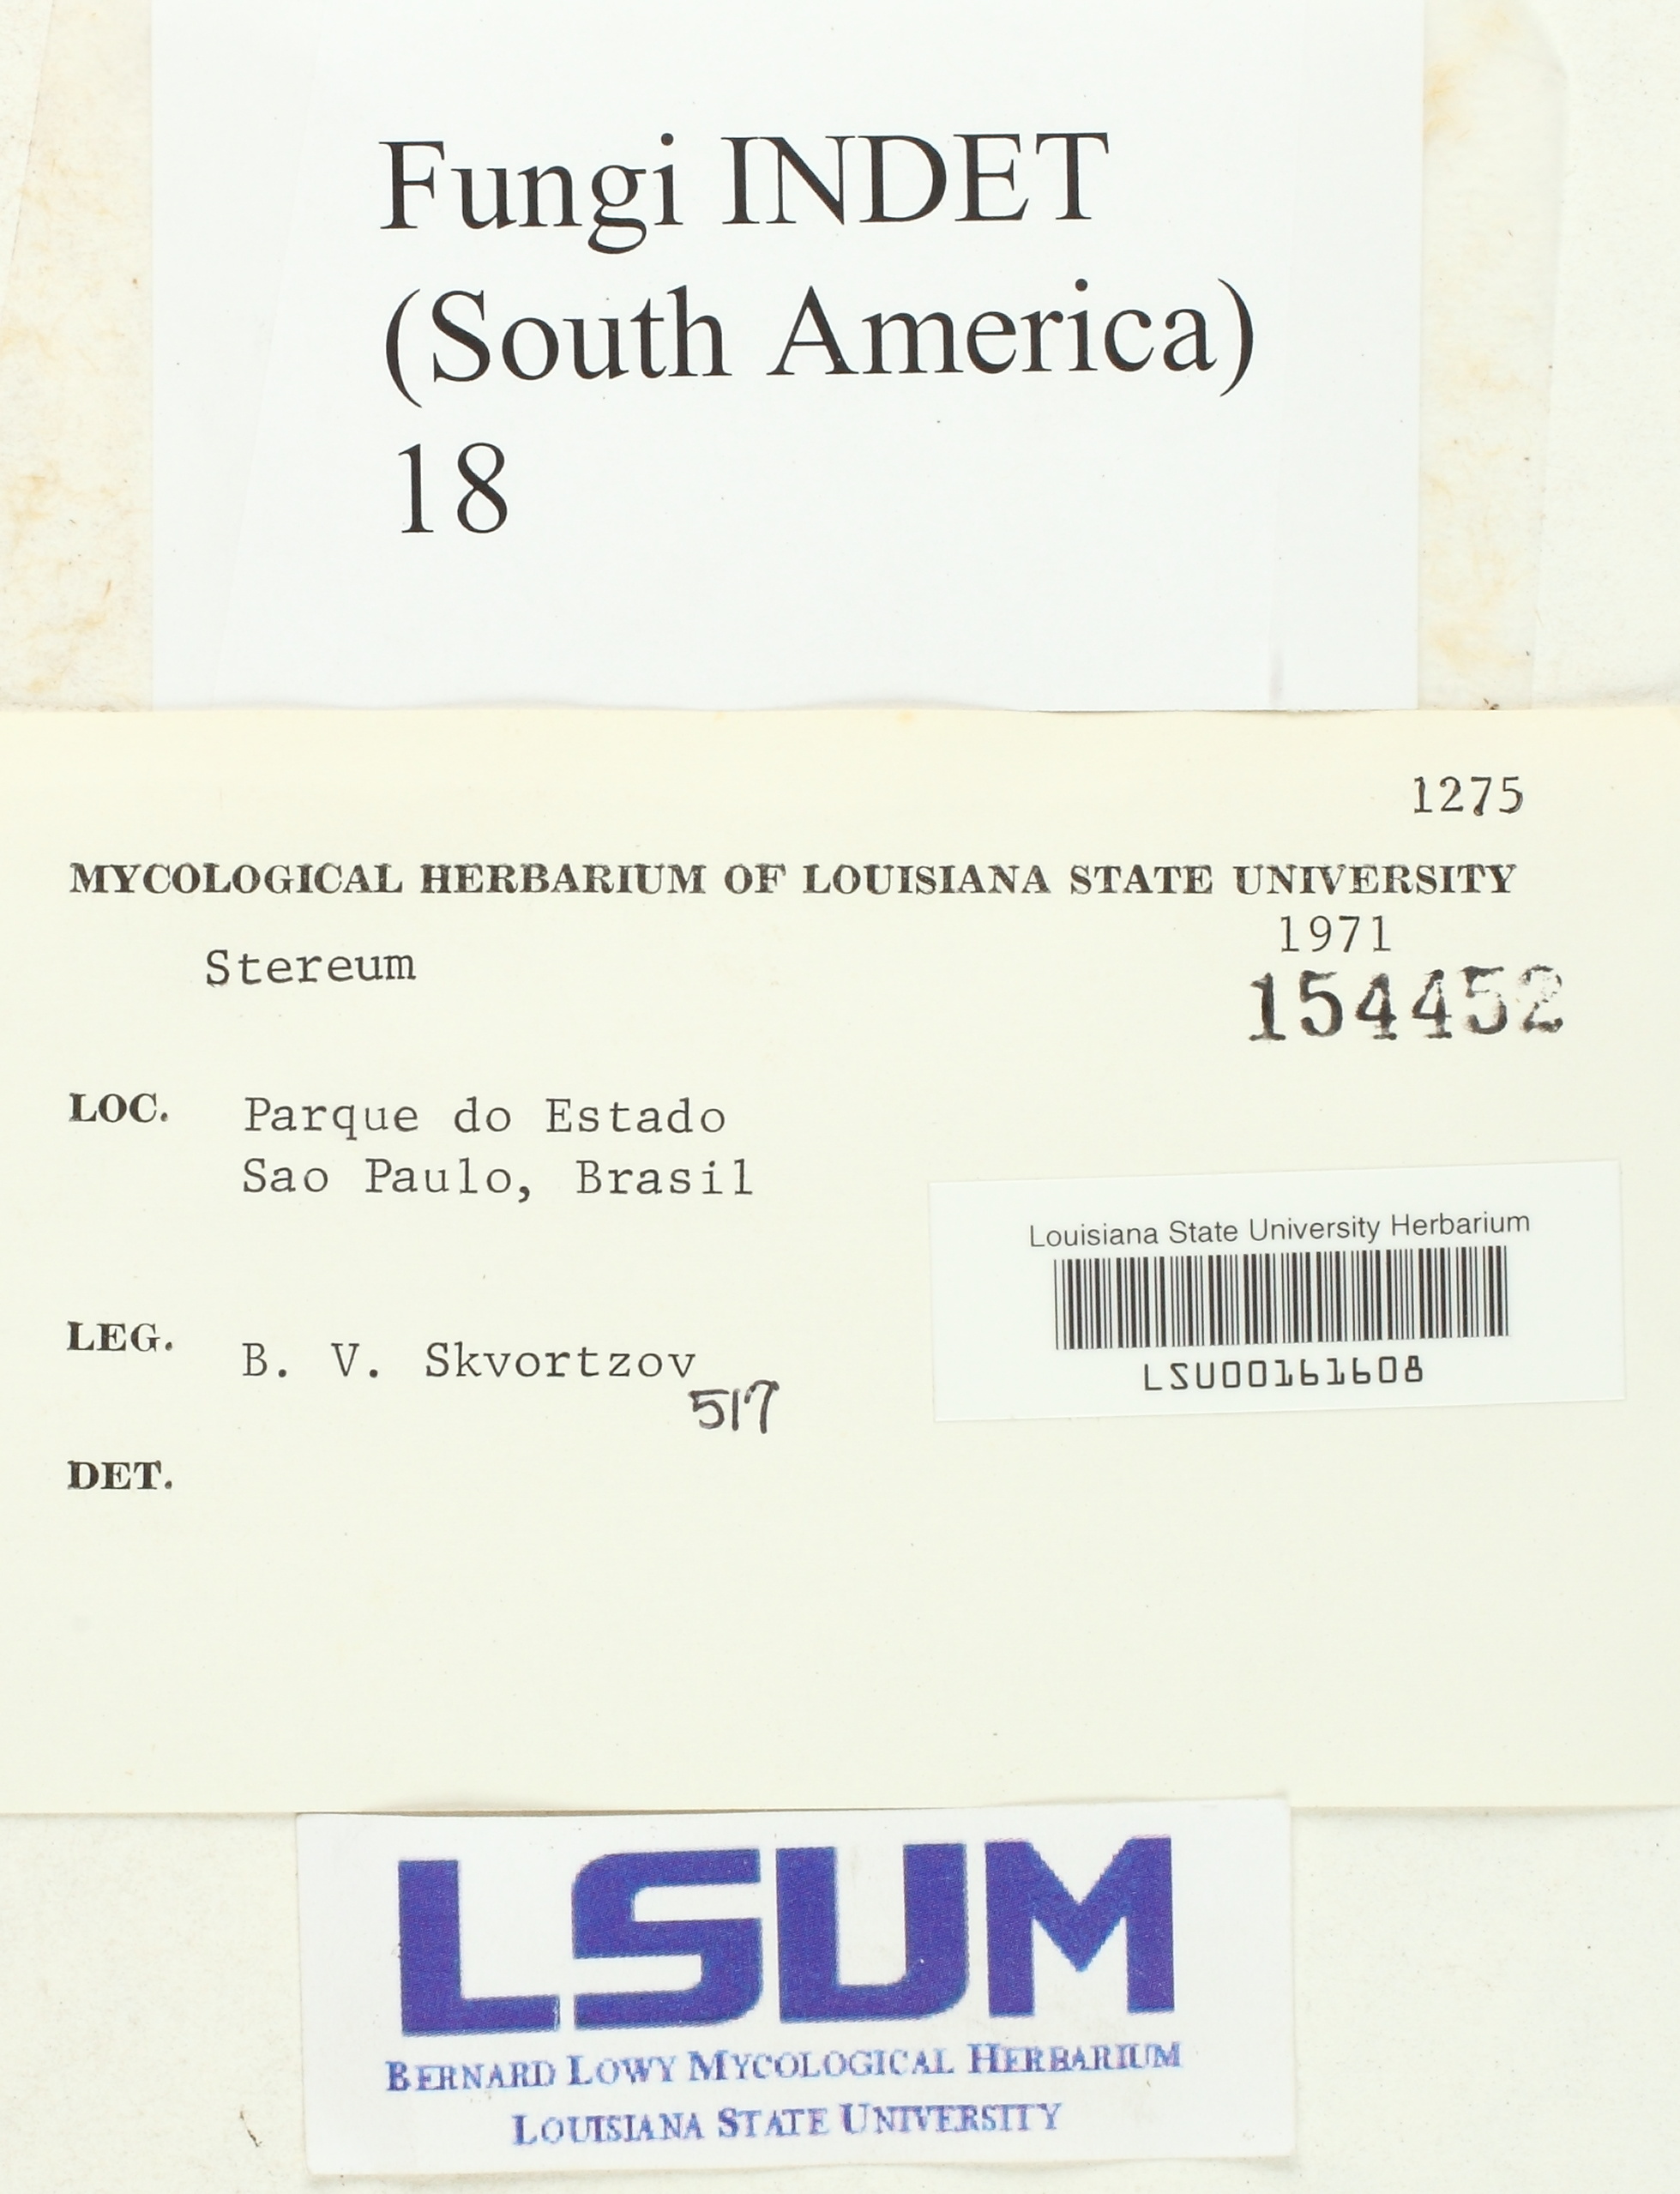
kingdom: Fungi
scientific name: Fungi
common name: Fungi
